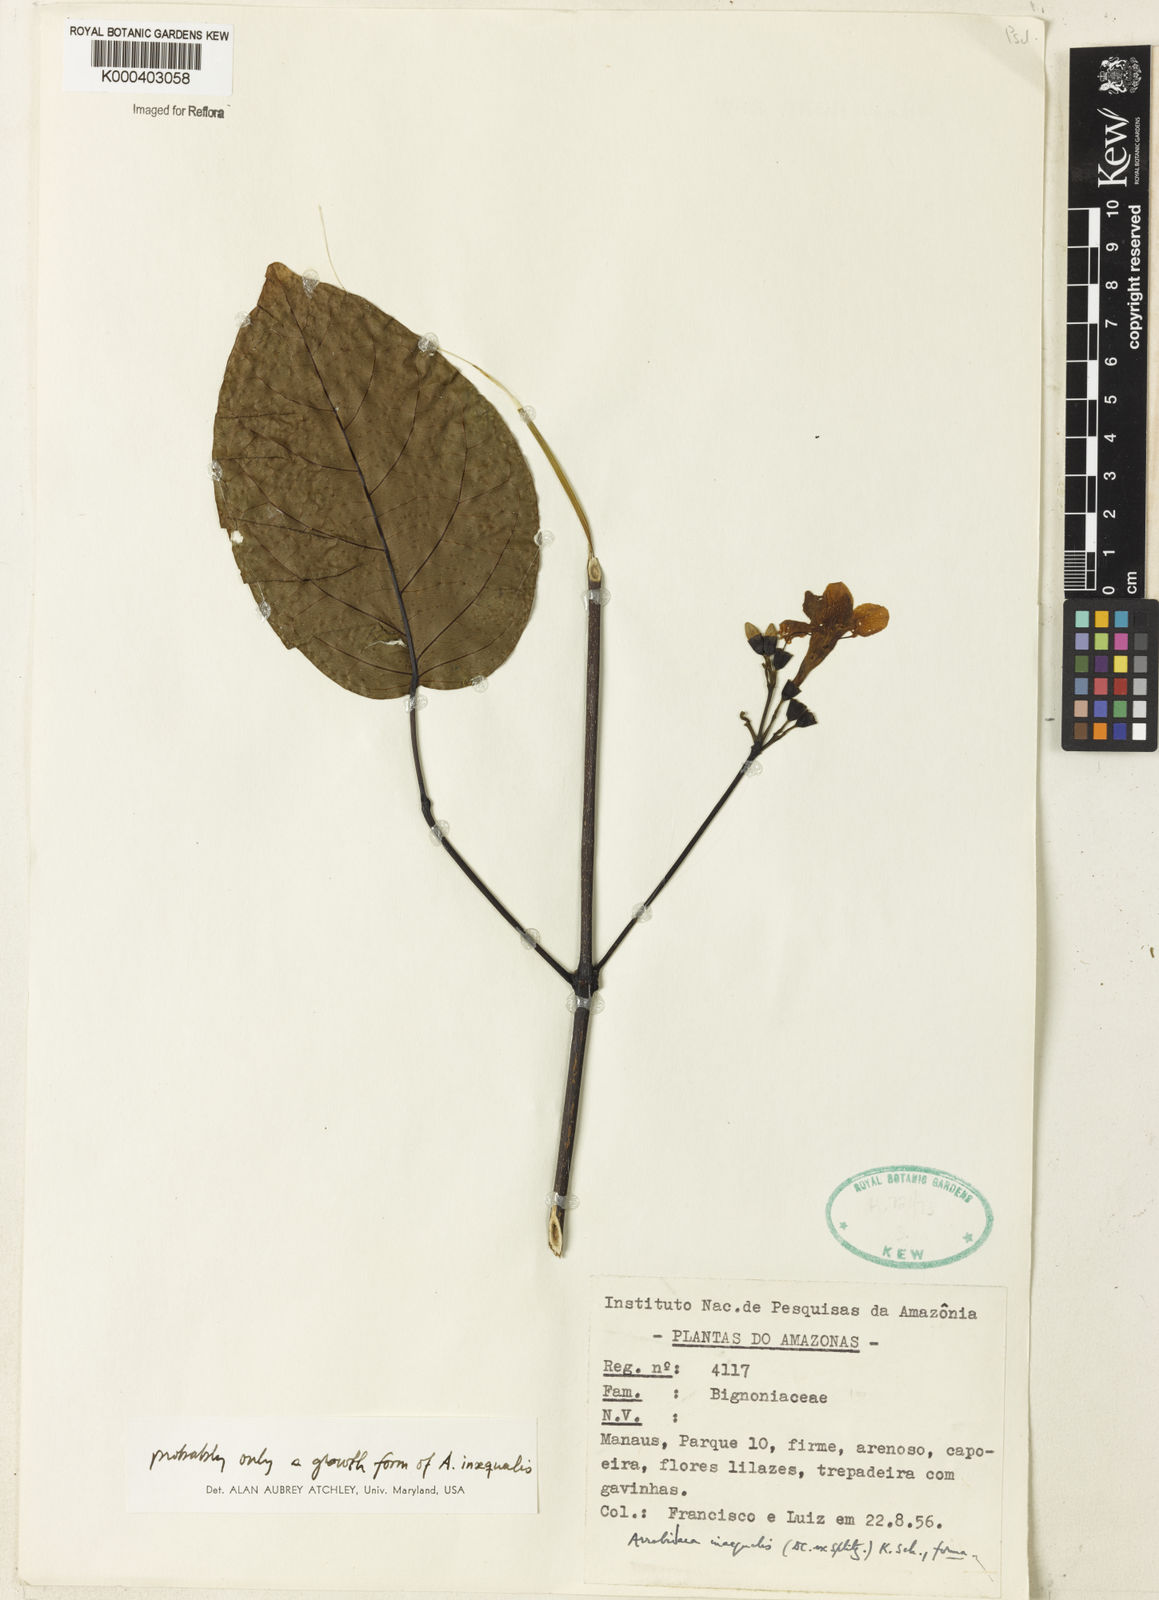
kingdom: Plantae
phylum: Tracheophyta
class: Magnoliopsida
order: Lamiales
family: Bignoniaceae
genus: Cuspidaria
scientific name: Cuspidaria inaequalis
